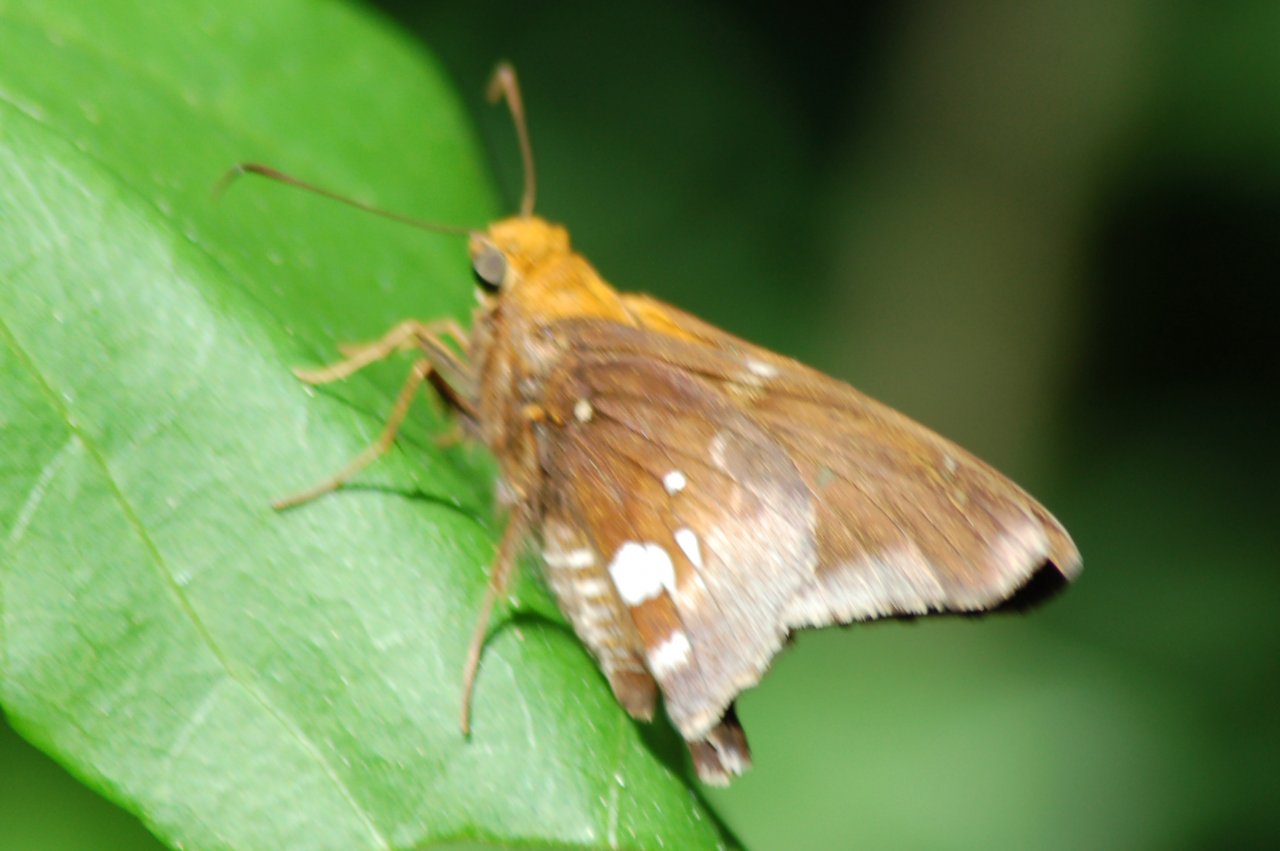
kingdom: Animalia
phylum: Arthropoda
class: Insecta
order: Lepidoptera
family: Hesperiidae
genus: Epargyreus
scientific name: Epargyreus aspina
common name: Spineless Silverdrop
